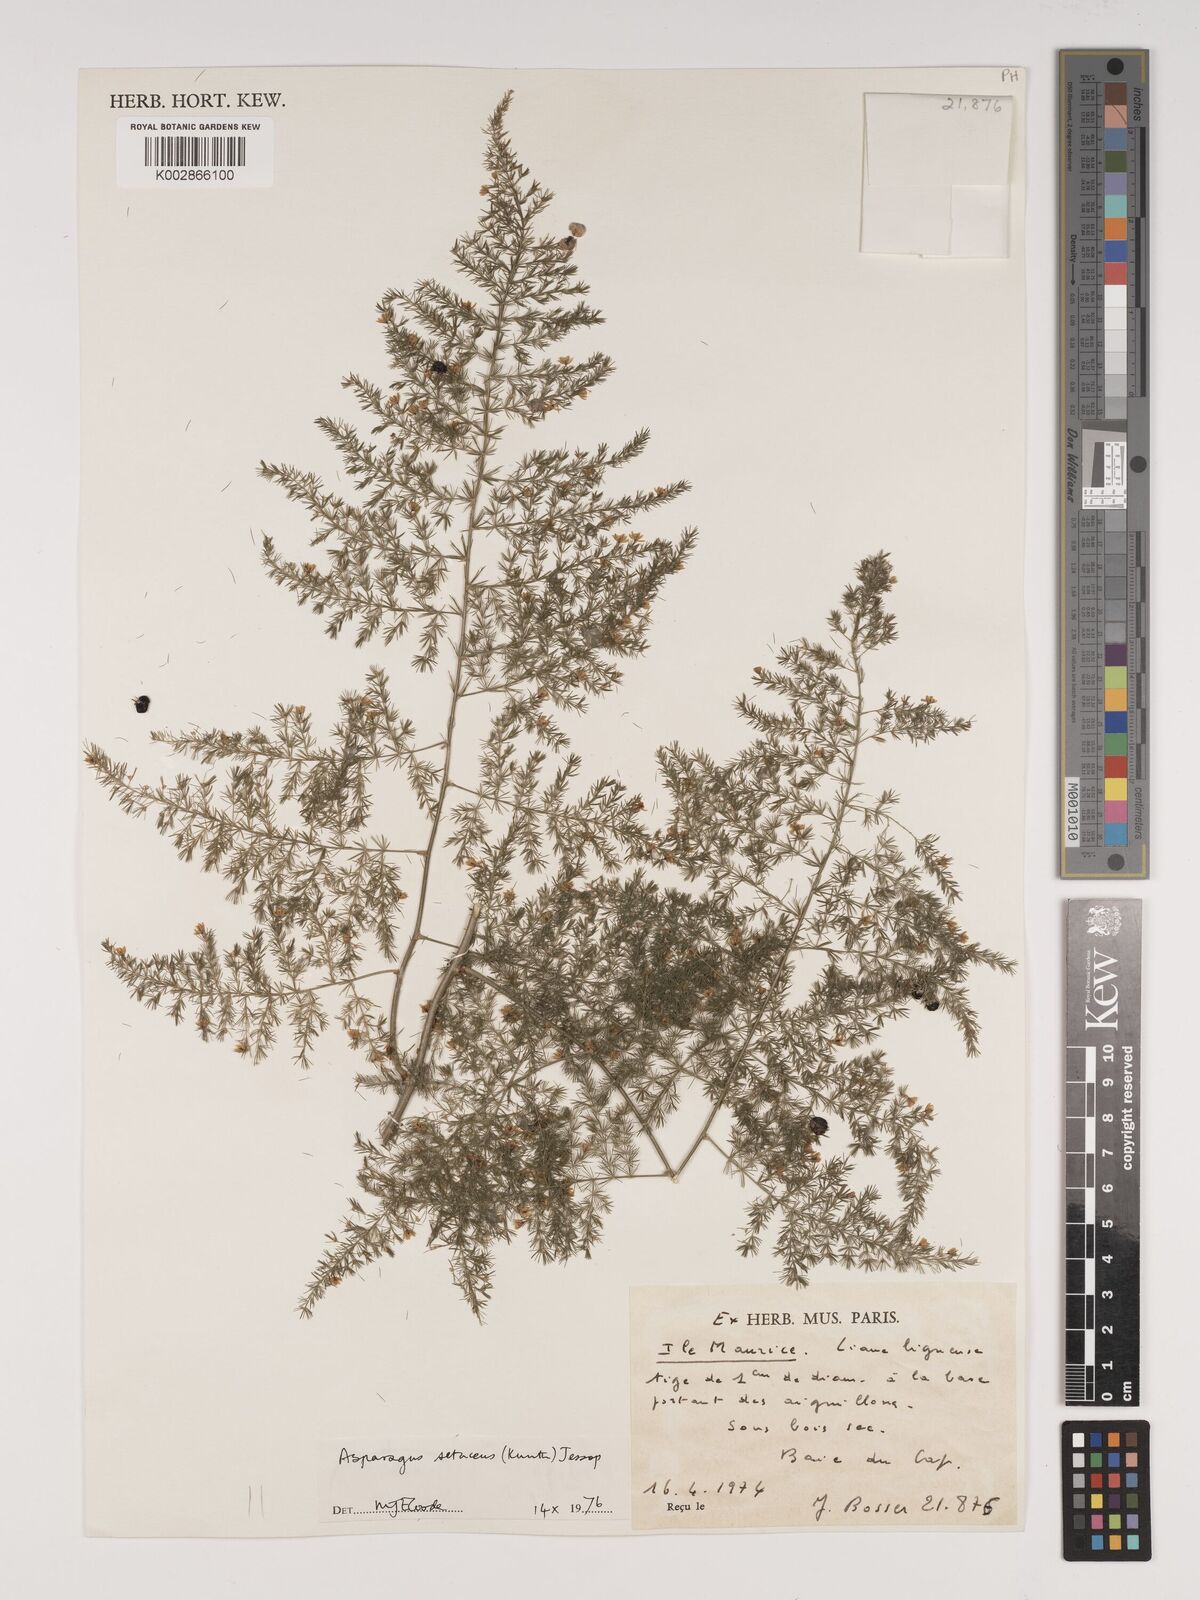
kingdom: Plantae
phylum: Tracheophyta
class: Liliopsida
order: Asparagales
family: Asparagaceae
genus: Asparagus
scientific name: Asparagus setaceus
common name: Common asparagus fern
